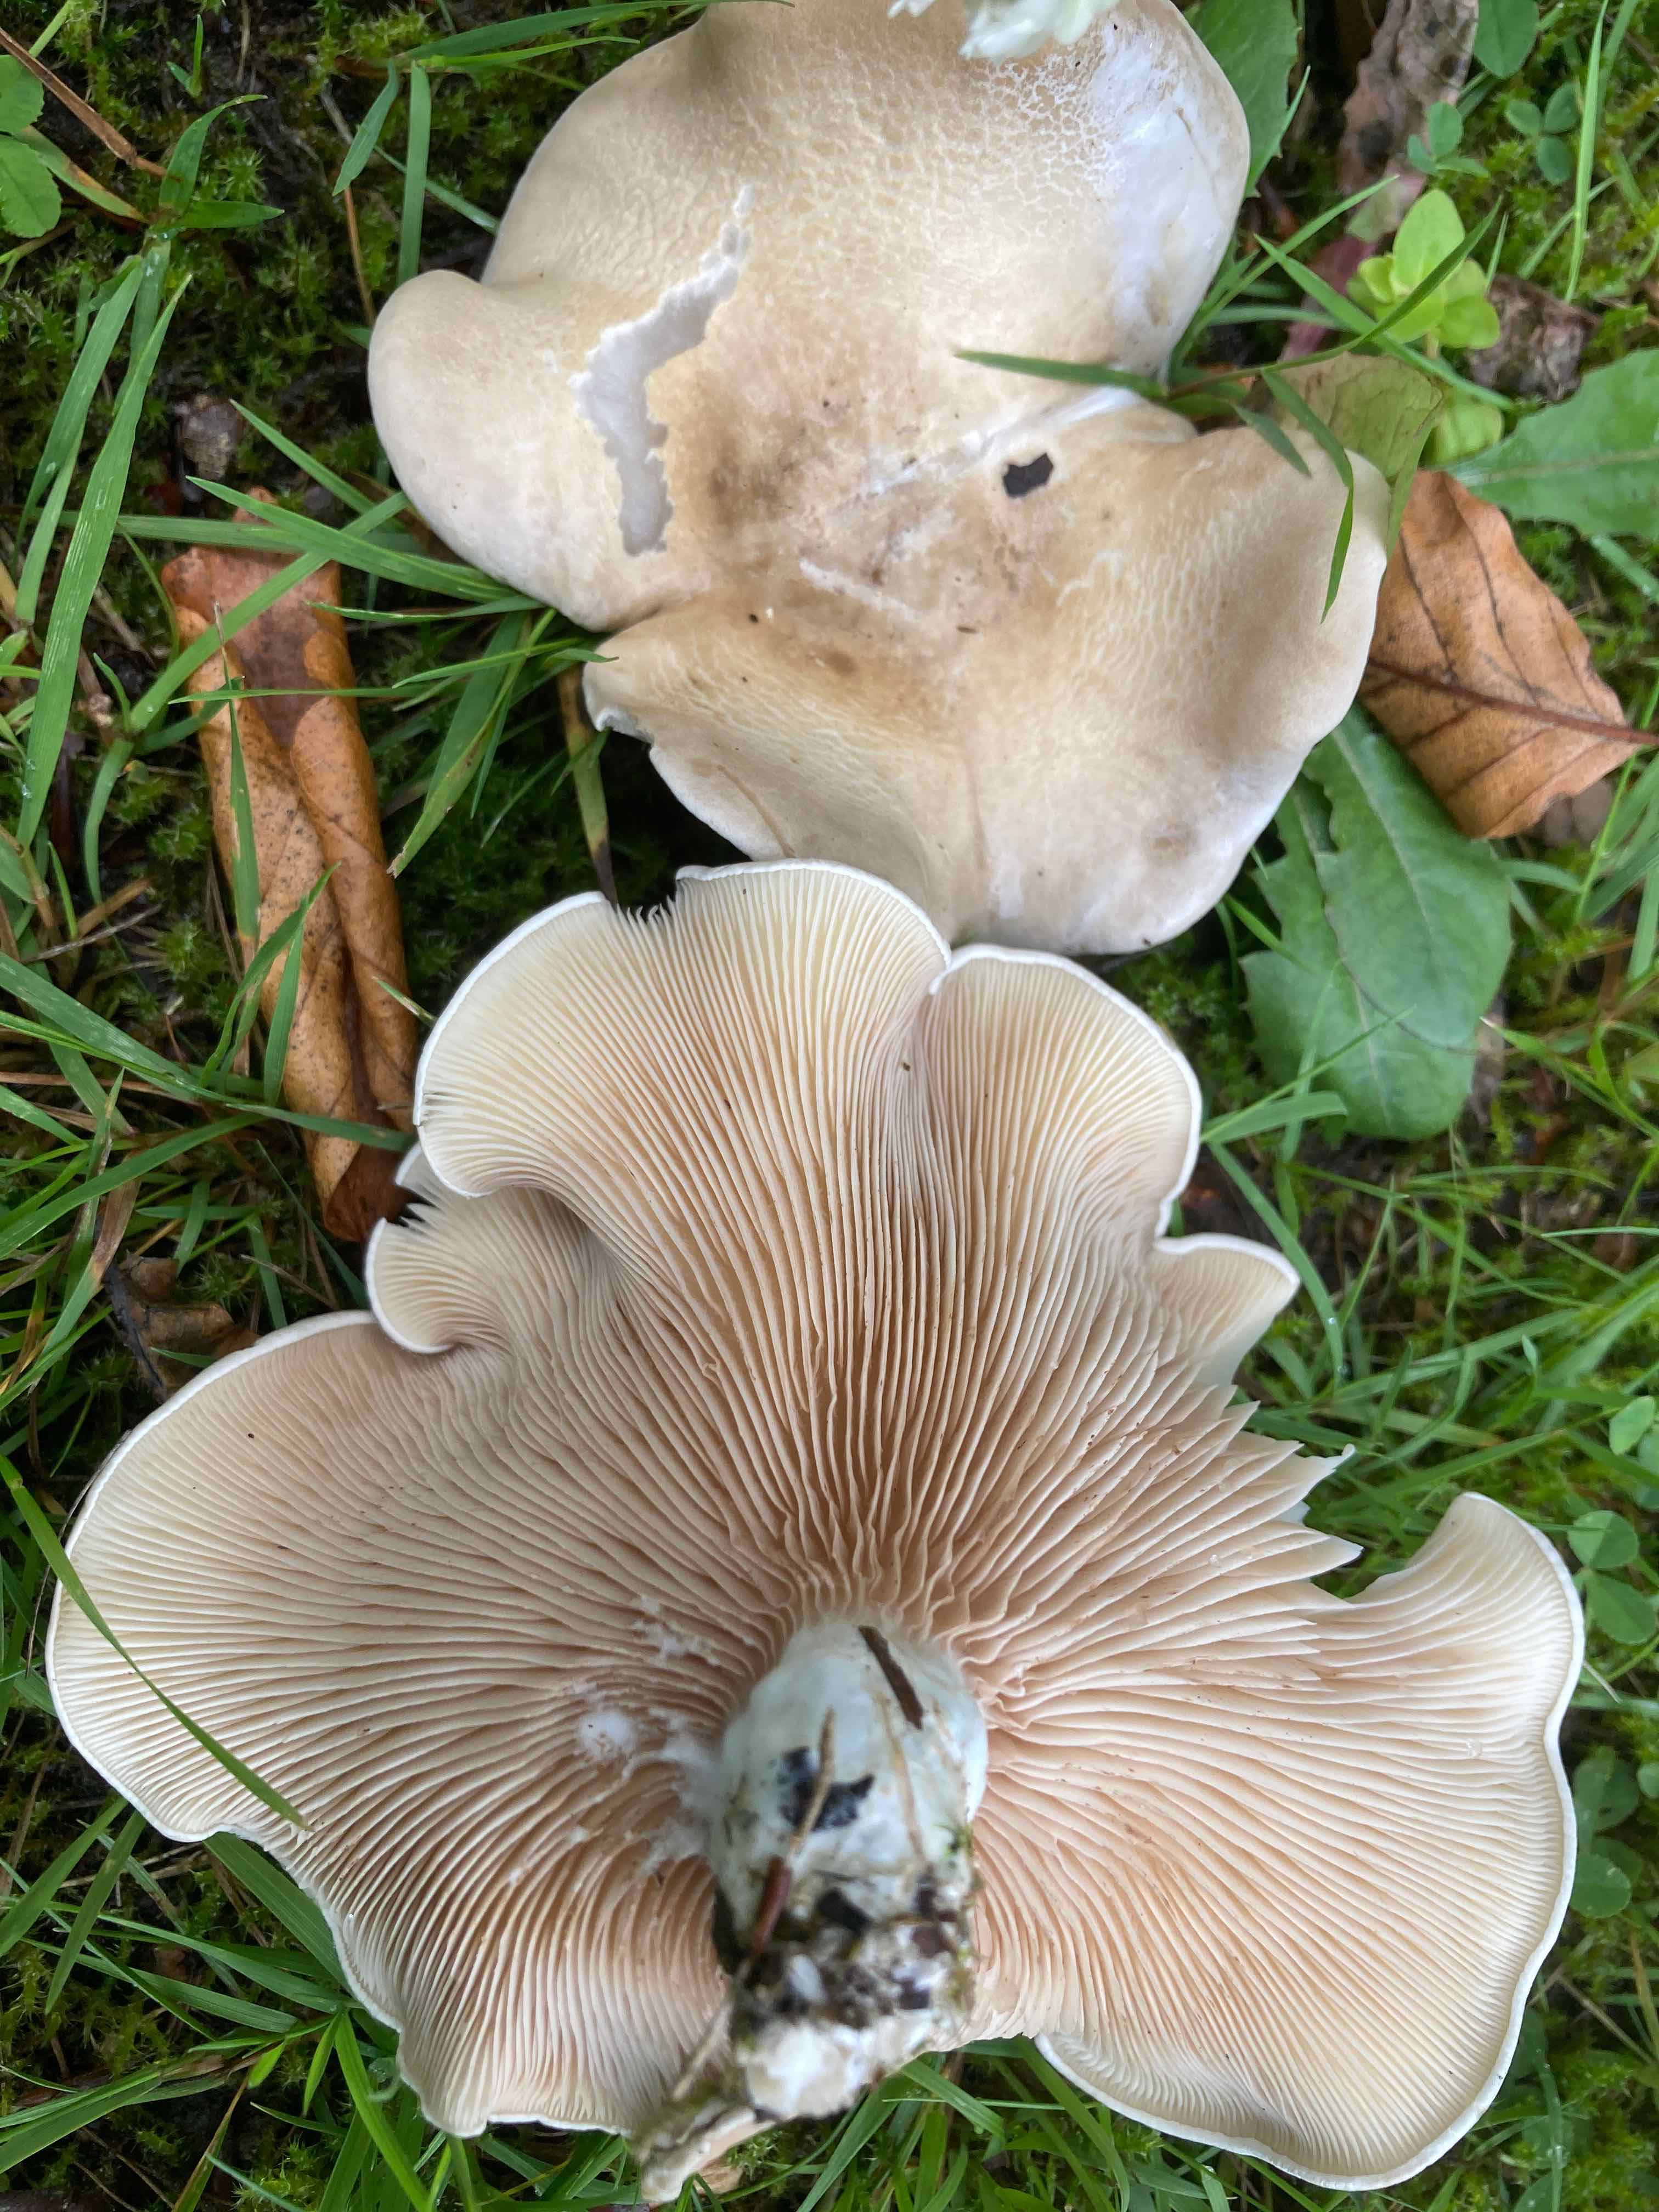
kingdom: Fungi
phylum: Basidiomycota
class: Agaricomycetes
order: Agaricales
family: Entolomataceae
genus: Clitopilus
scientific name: Clitopilus prunulus
